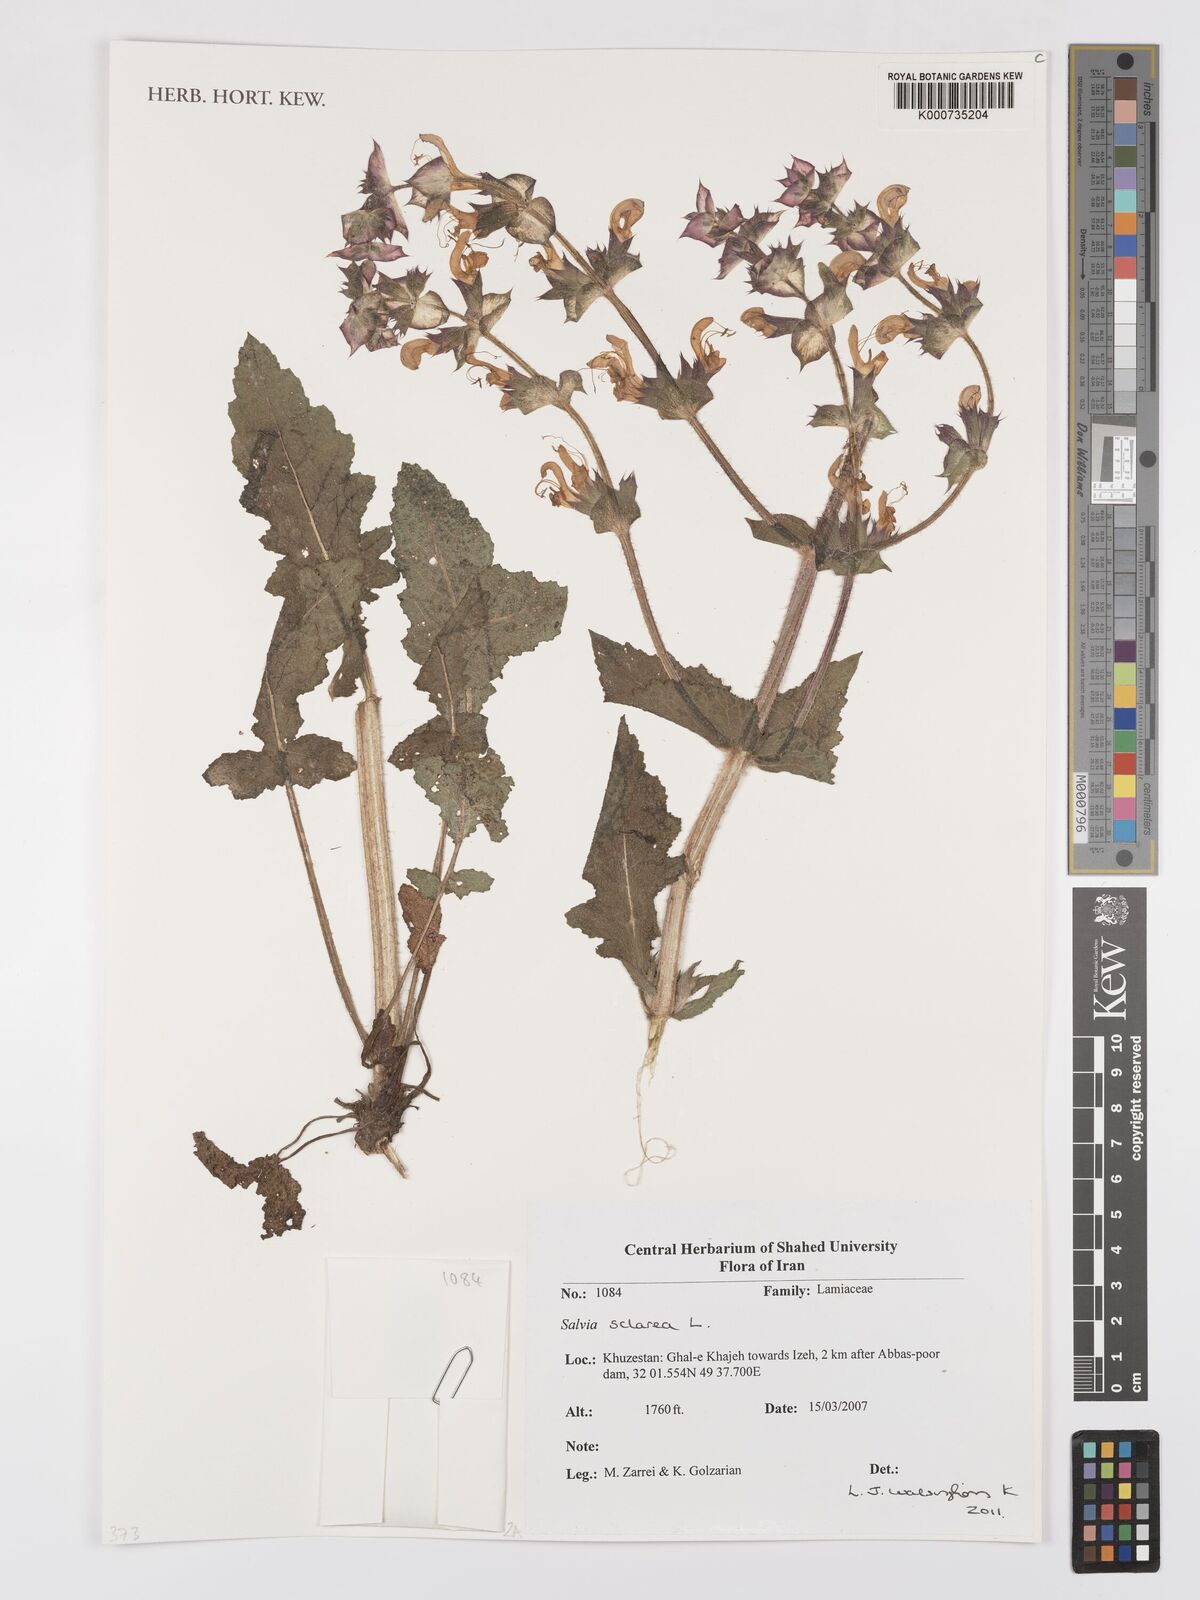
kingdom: Plantae
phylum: Tracheophyta
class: Magnoliopsida
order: Lamiales
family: Lamiaceae
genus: Salvia
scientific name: Salvia sclarea
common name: Clary
